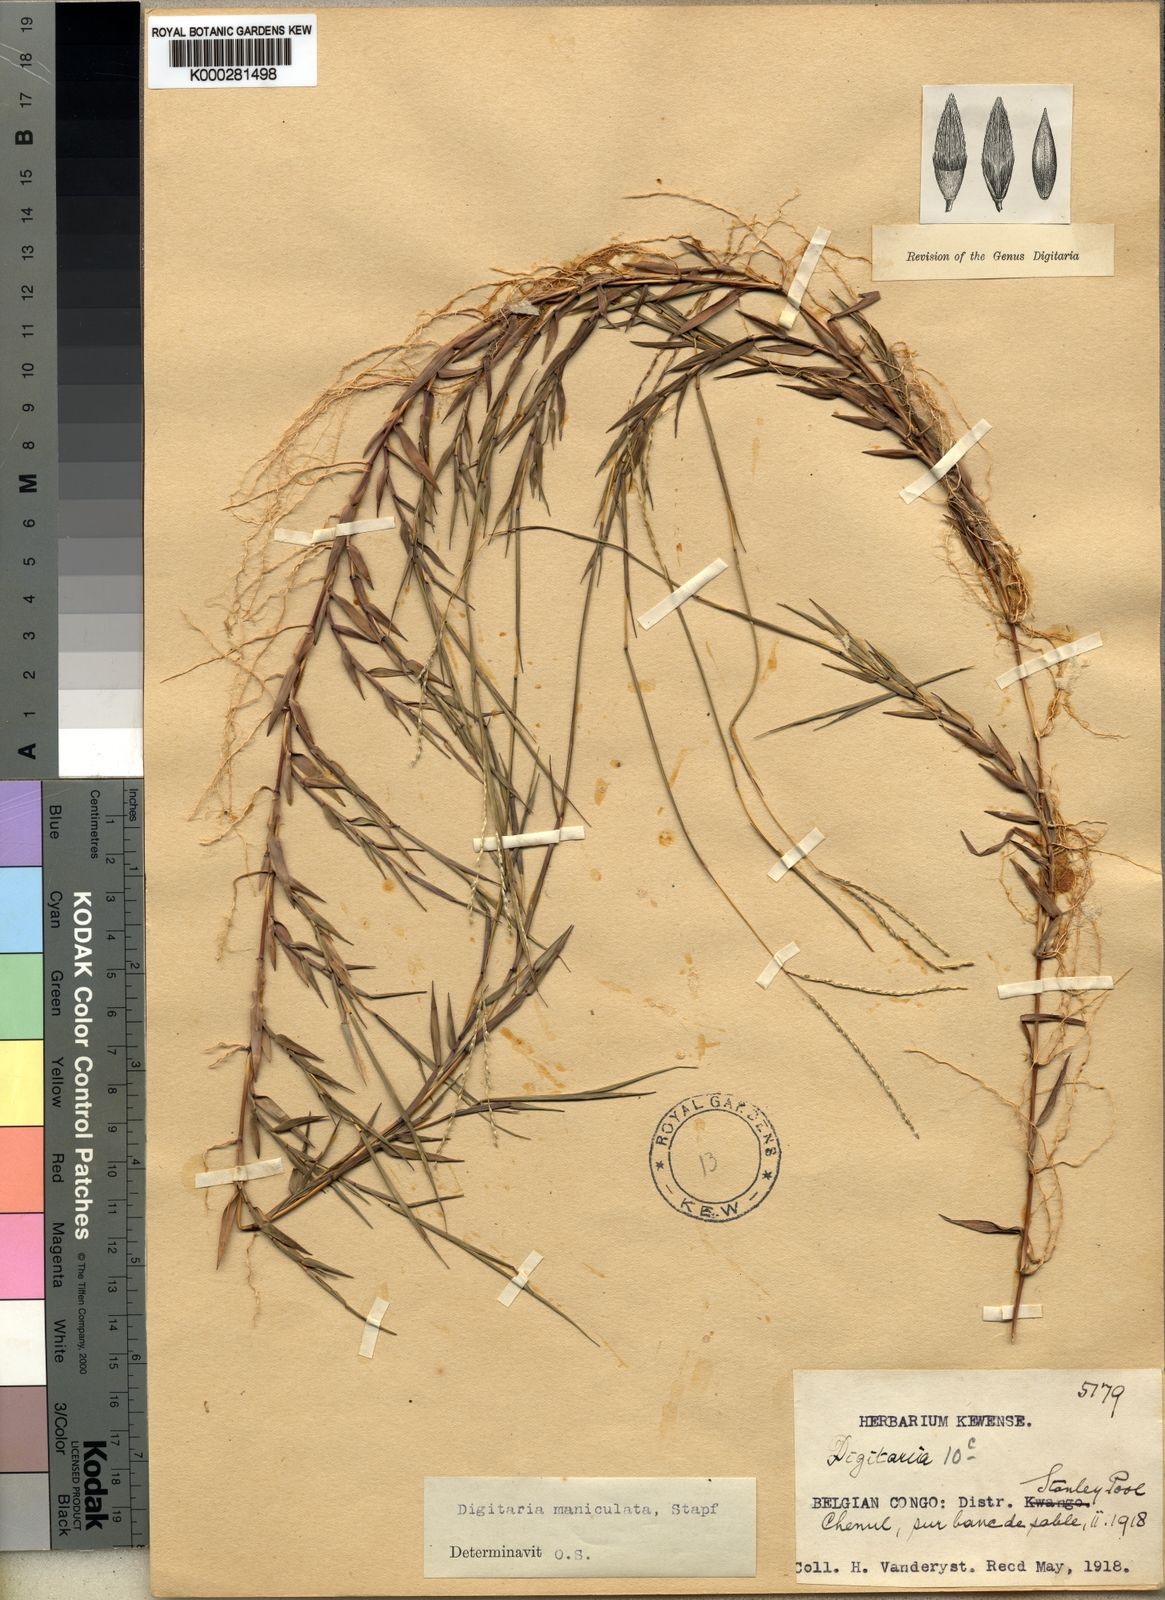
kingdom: Plantae
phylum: Tracheophyta
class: Liliopsida
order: Poales
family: Poaceae
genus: Digitaria
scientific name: Digitaria maniculata
